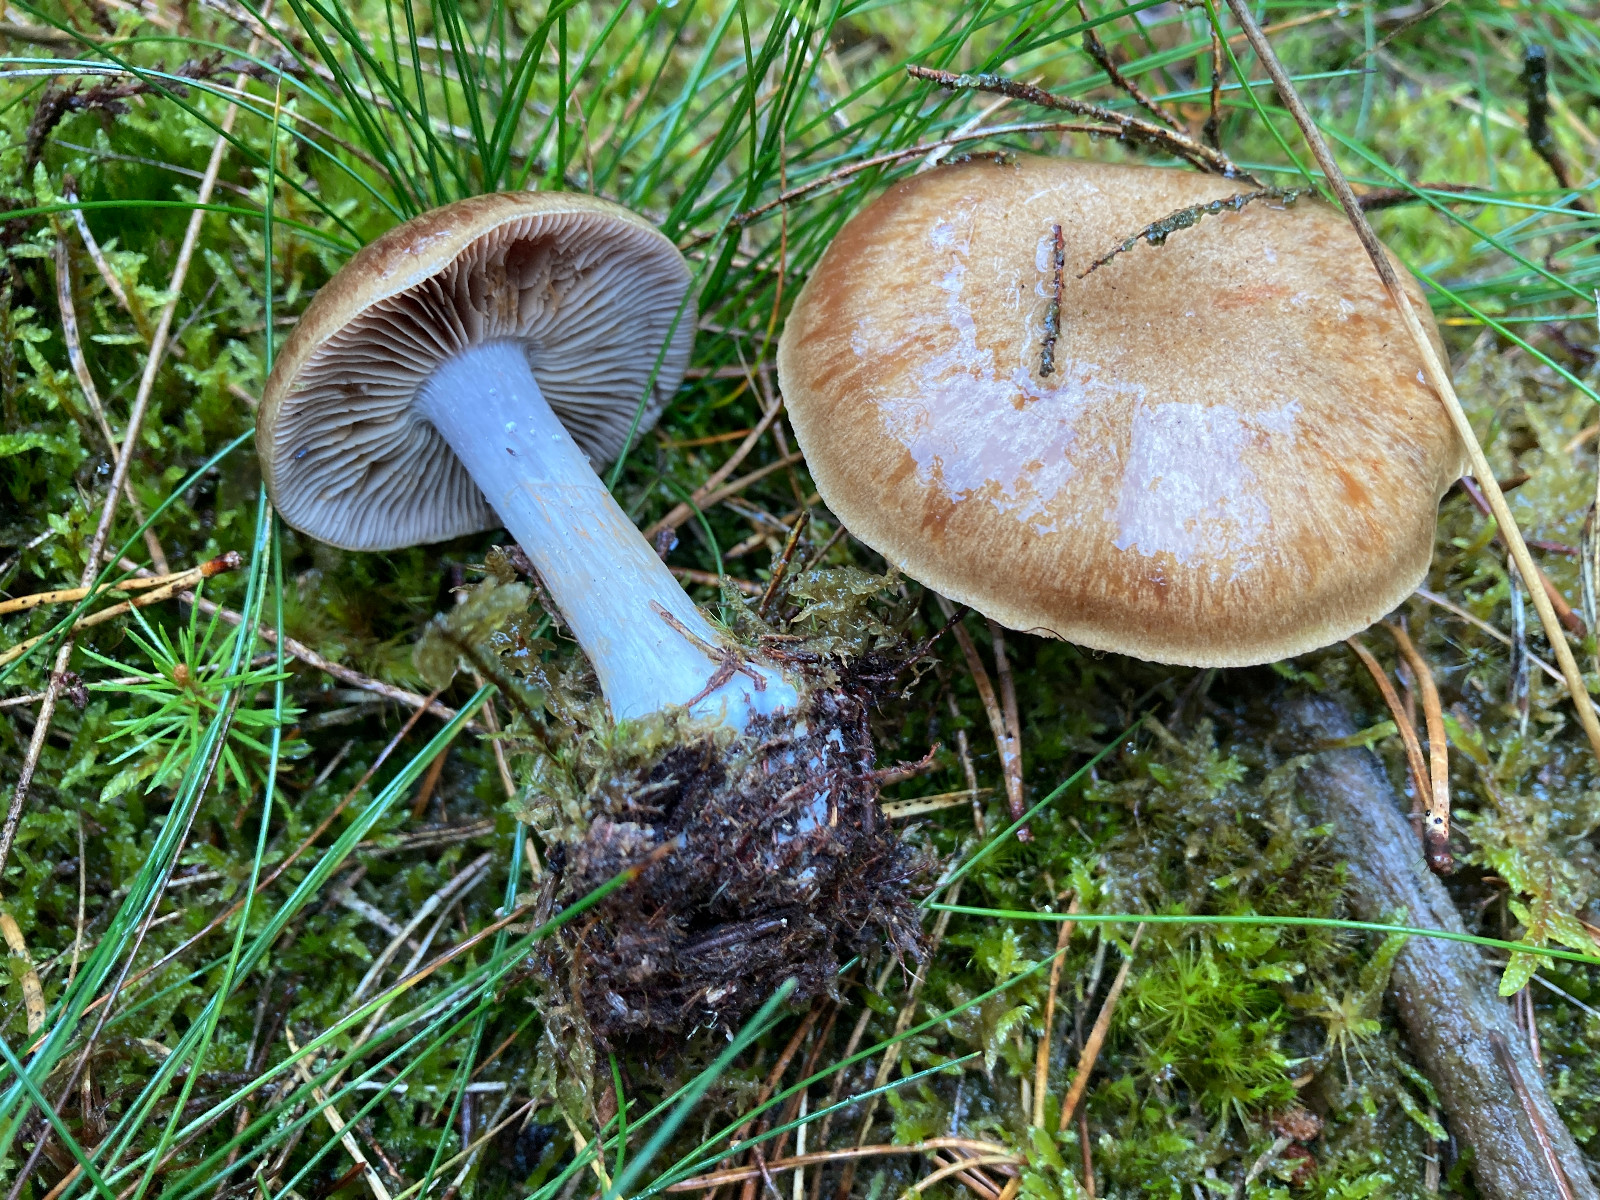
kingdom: Fungi
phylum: Basidiomycota
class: Agaricomycetes
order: Agaricales
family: Cortinariaceae
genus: Thaxterogaster
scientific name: Thaxterogaster sphagnophilus
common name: vandplettet slørhat
